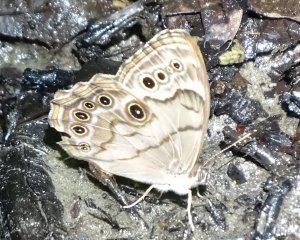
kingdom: Animalia
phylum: Arthropoda
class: Insecta
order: Lepidoptera
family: Nymphalidae
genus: Lethe
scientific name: Lethe anthedon
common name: Northern Pearly-Eye
